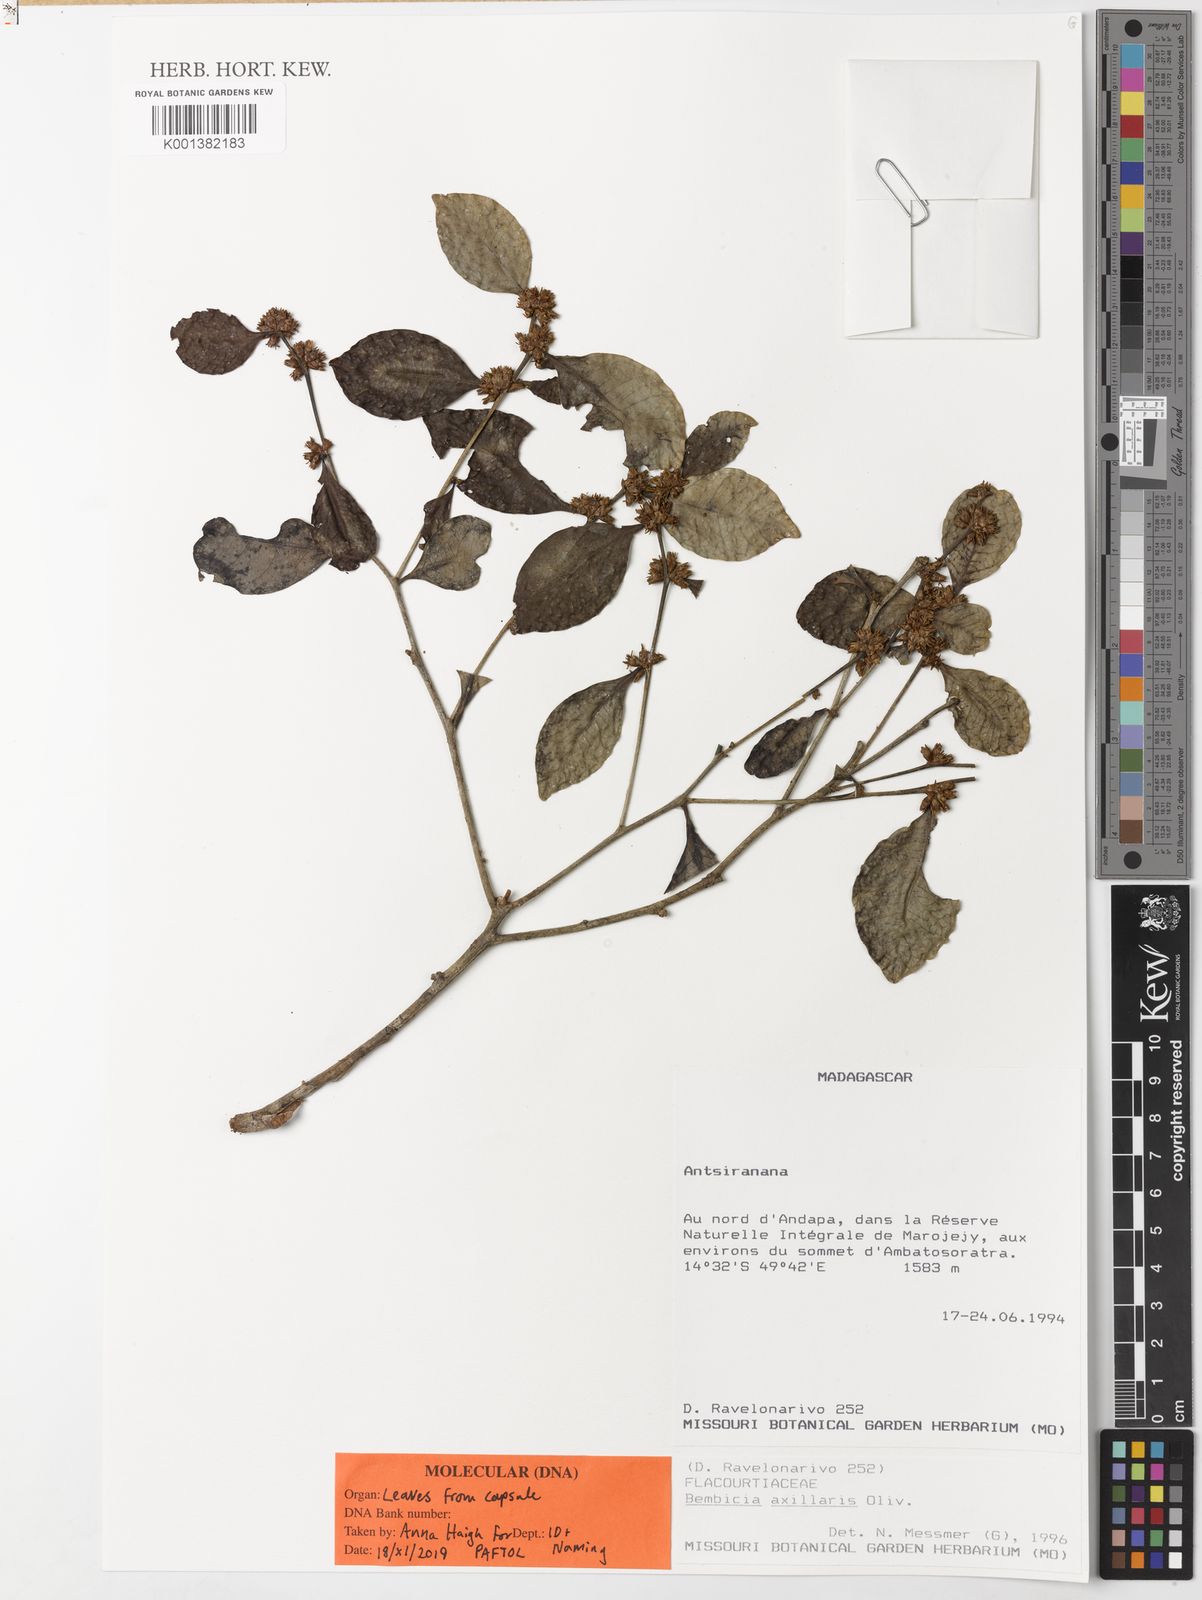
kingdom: Plantae
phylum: Tracheophyta
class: Magnoliopsida
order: Malpighiales
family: Salicaceae
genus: Bembicia
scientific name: Bembicia axillaris
